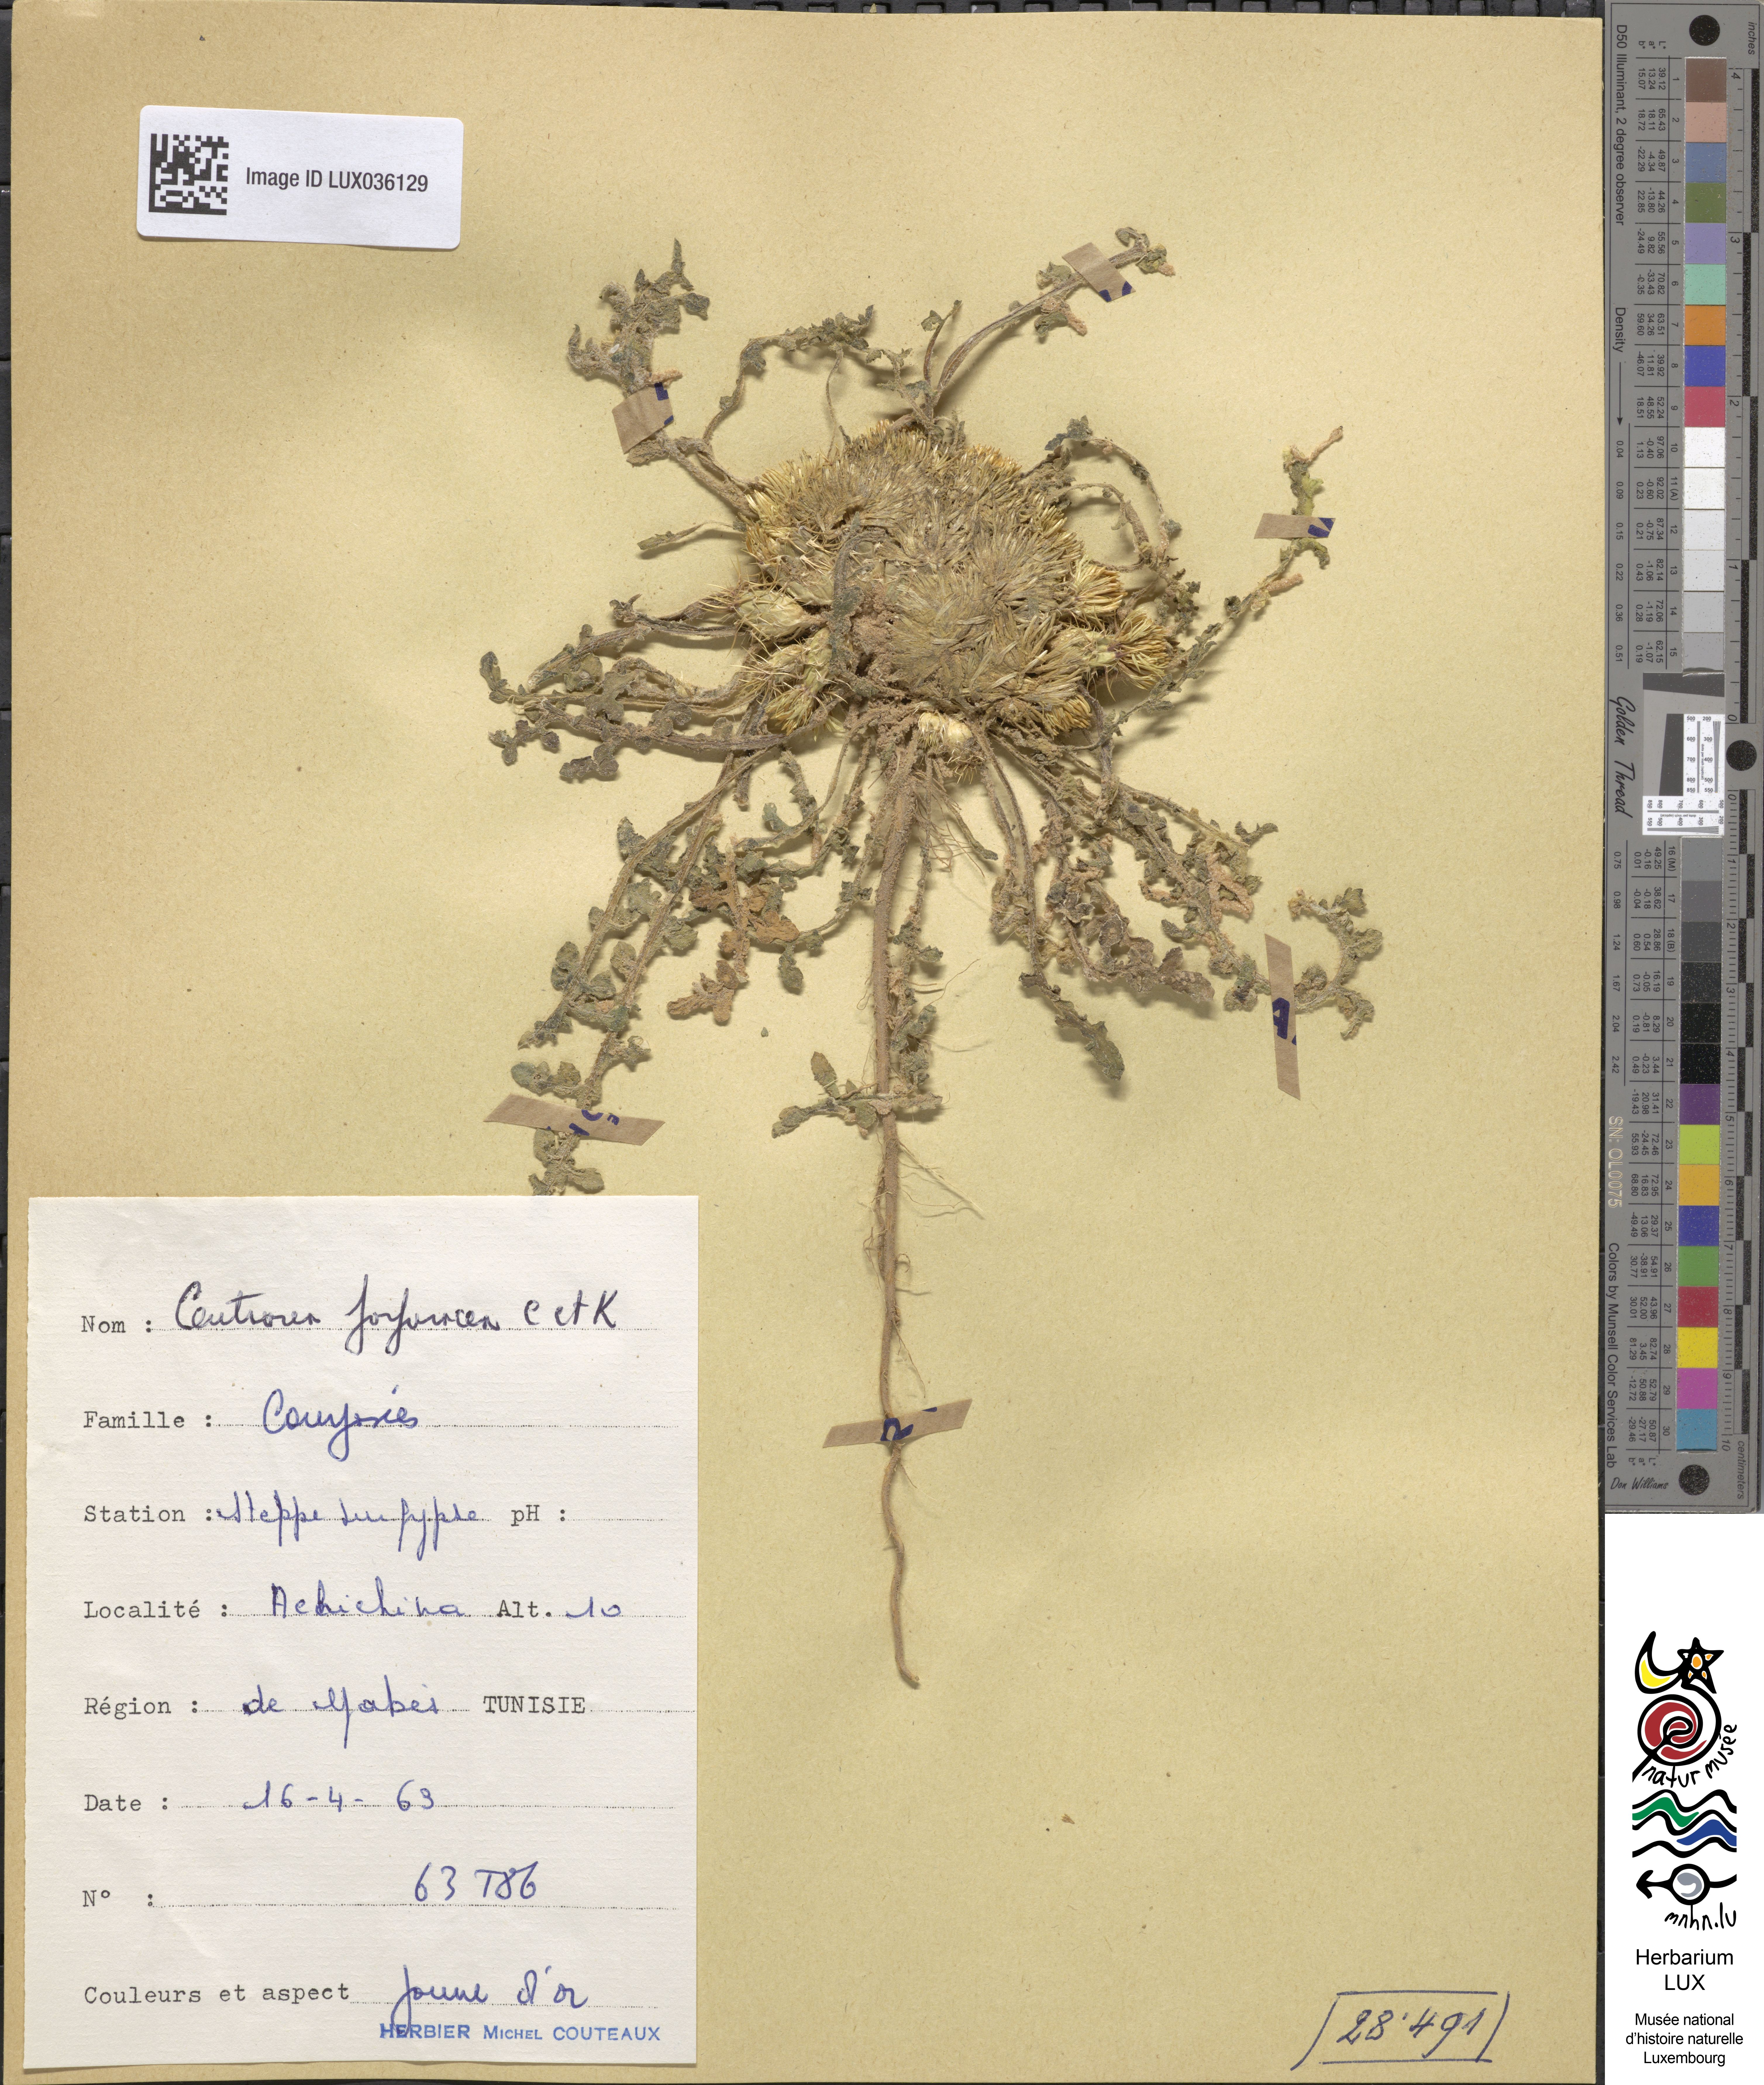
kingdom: Plantae
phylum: Tracheophyta
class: Magnoliopsida
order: Asterales
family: Asteraceae
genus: Centaurea
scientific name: Centaurea purpurea
